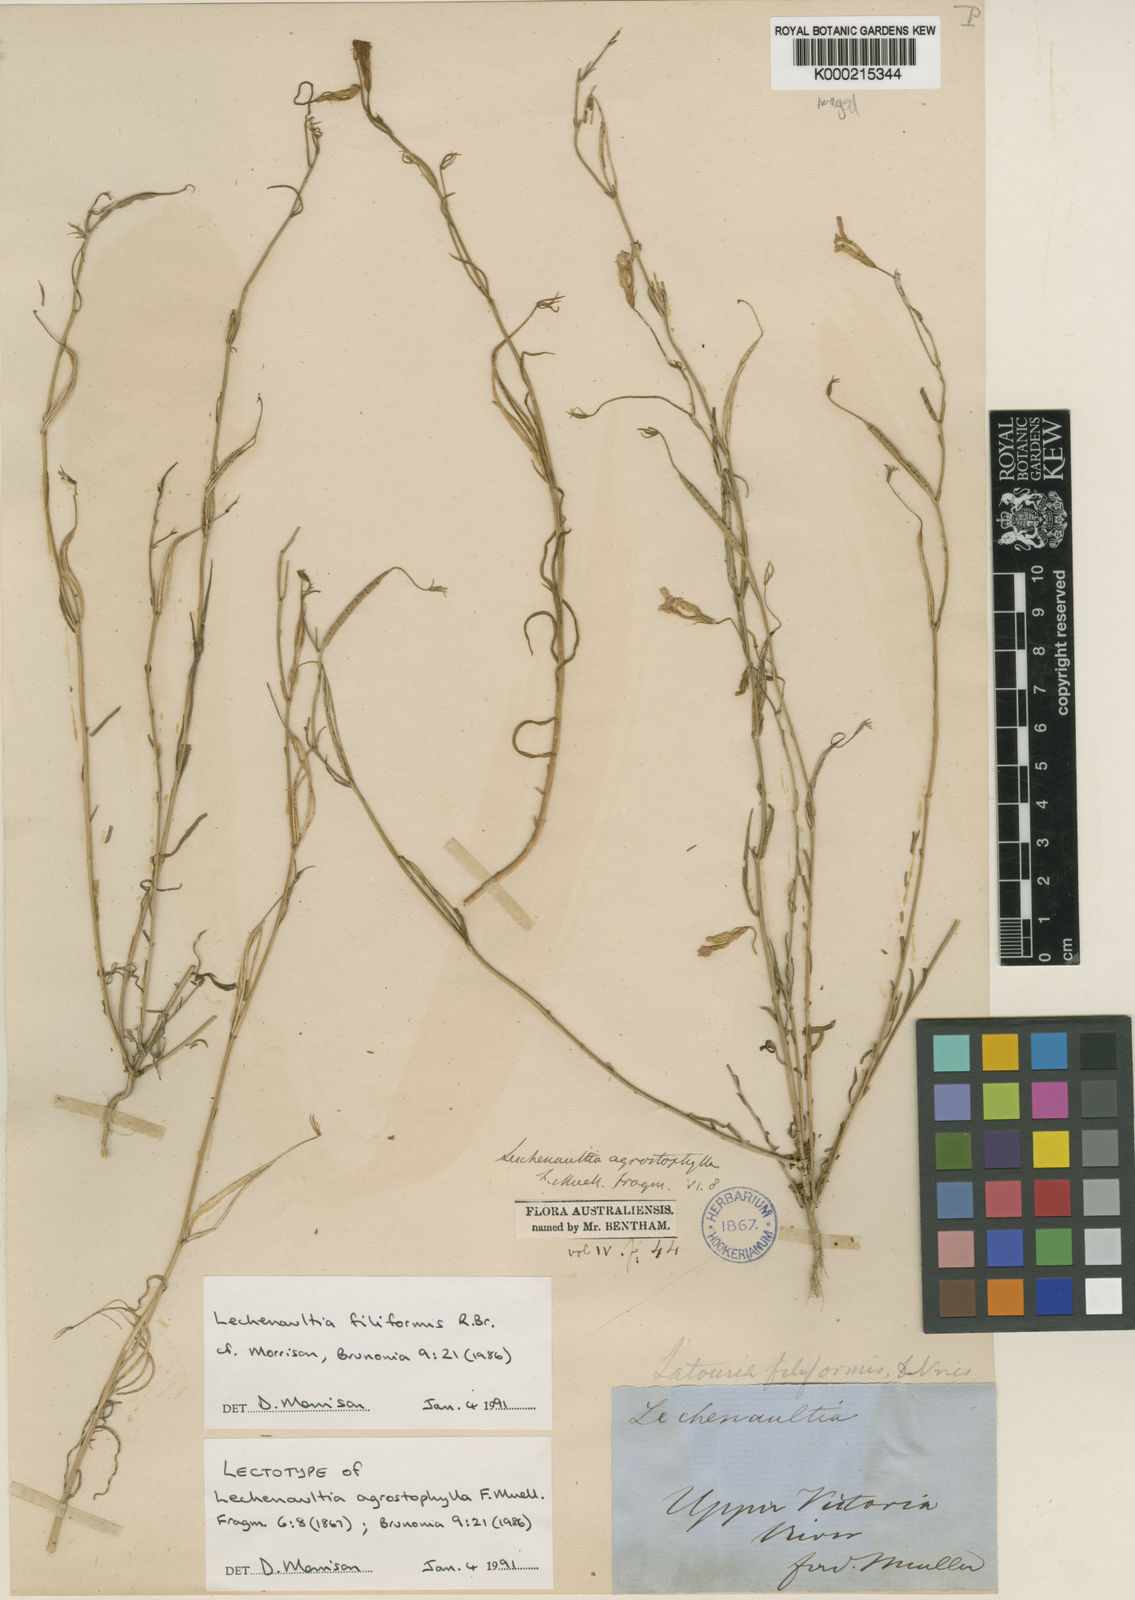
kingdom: Plantae
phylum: Tracheophyta
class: Magnoliopsida
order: Asterales
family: Goodeniaceae
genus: Leschenaultia
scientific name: Leschenaultia filiformis
